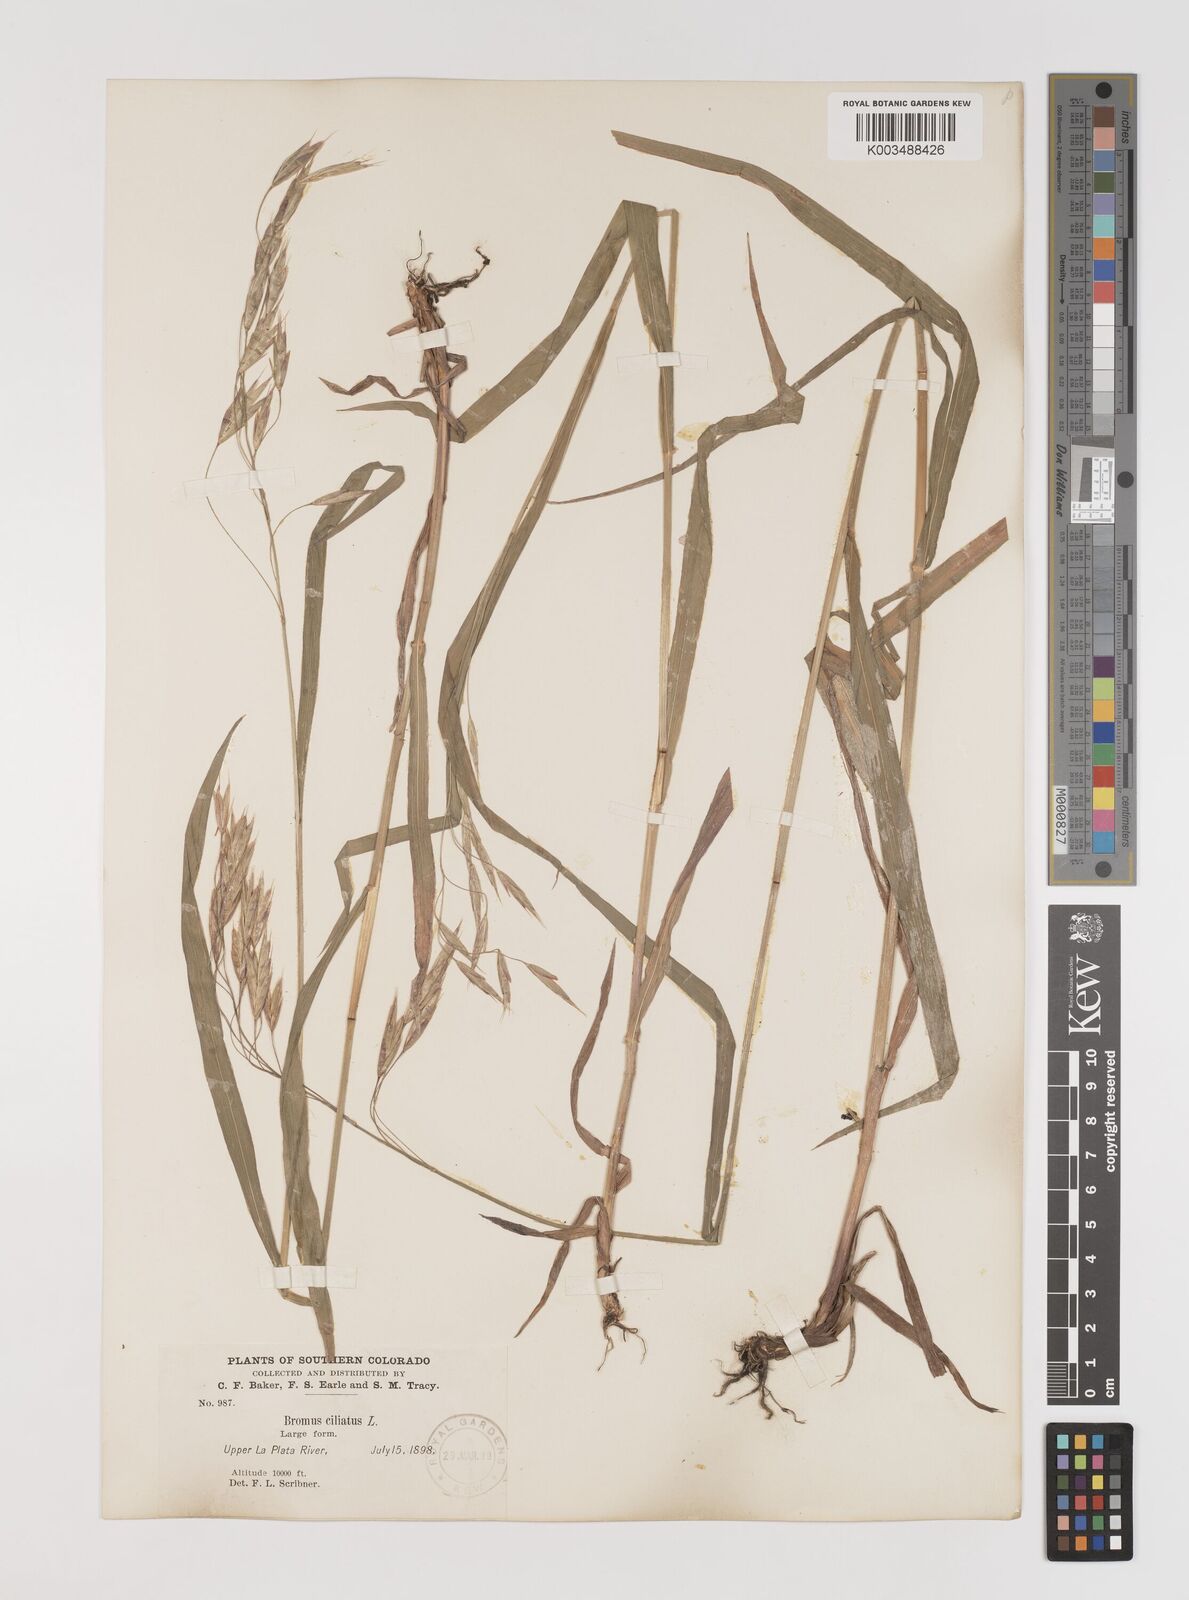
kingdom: Plantae
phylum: Tracheophyta
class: Liliopsida
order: Poales
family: Poaceae
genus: Bromus
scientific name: Bromus ciliatus
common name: Fringe brome
